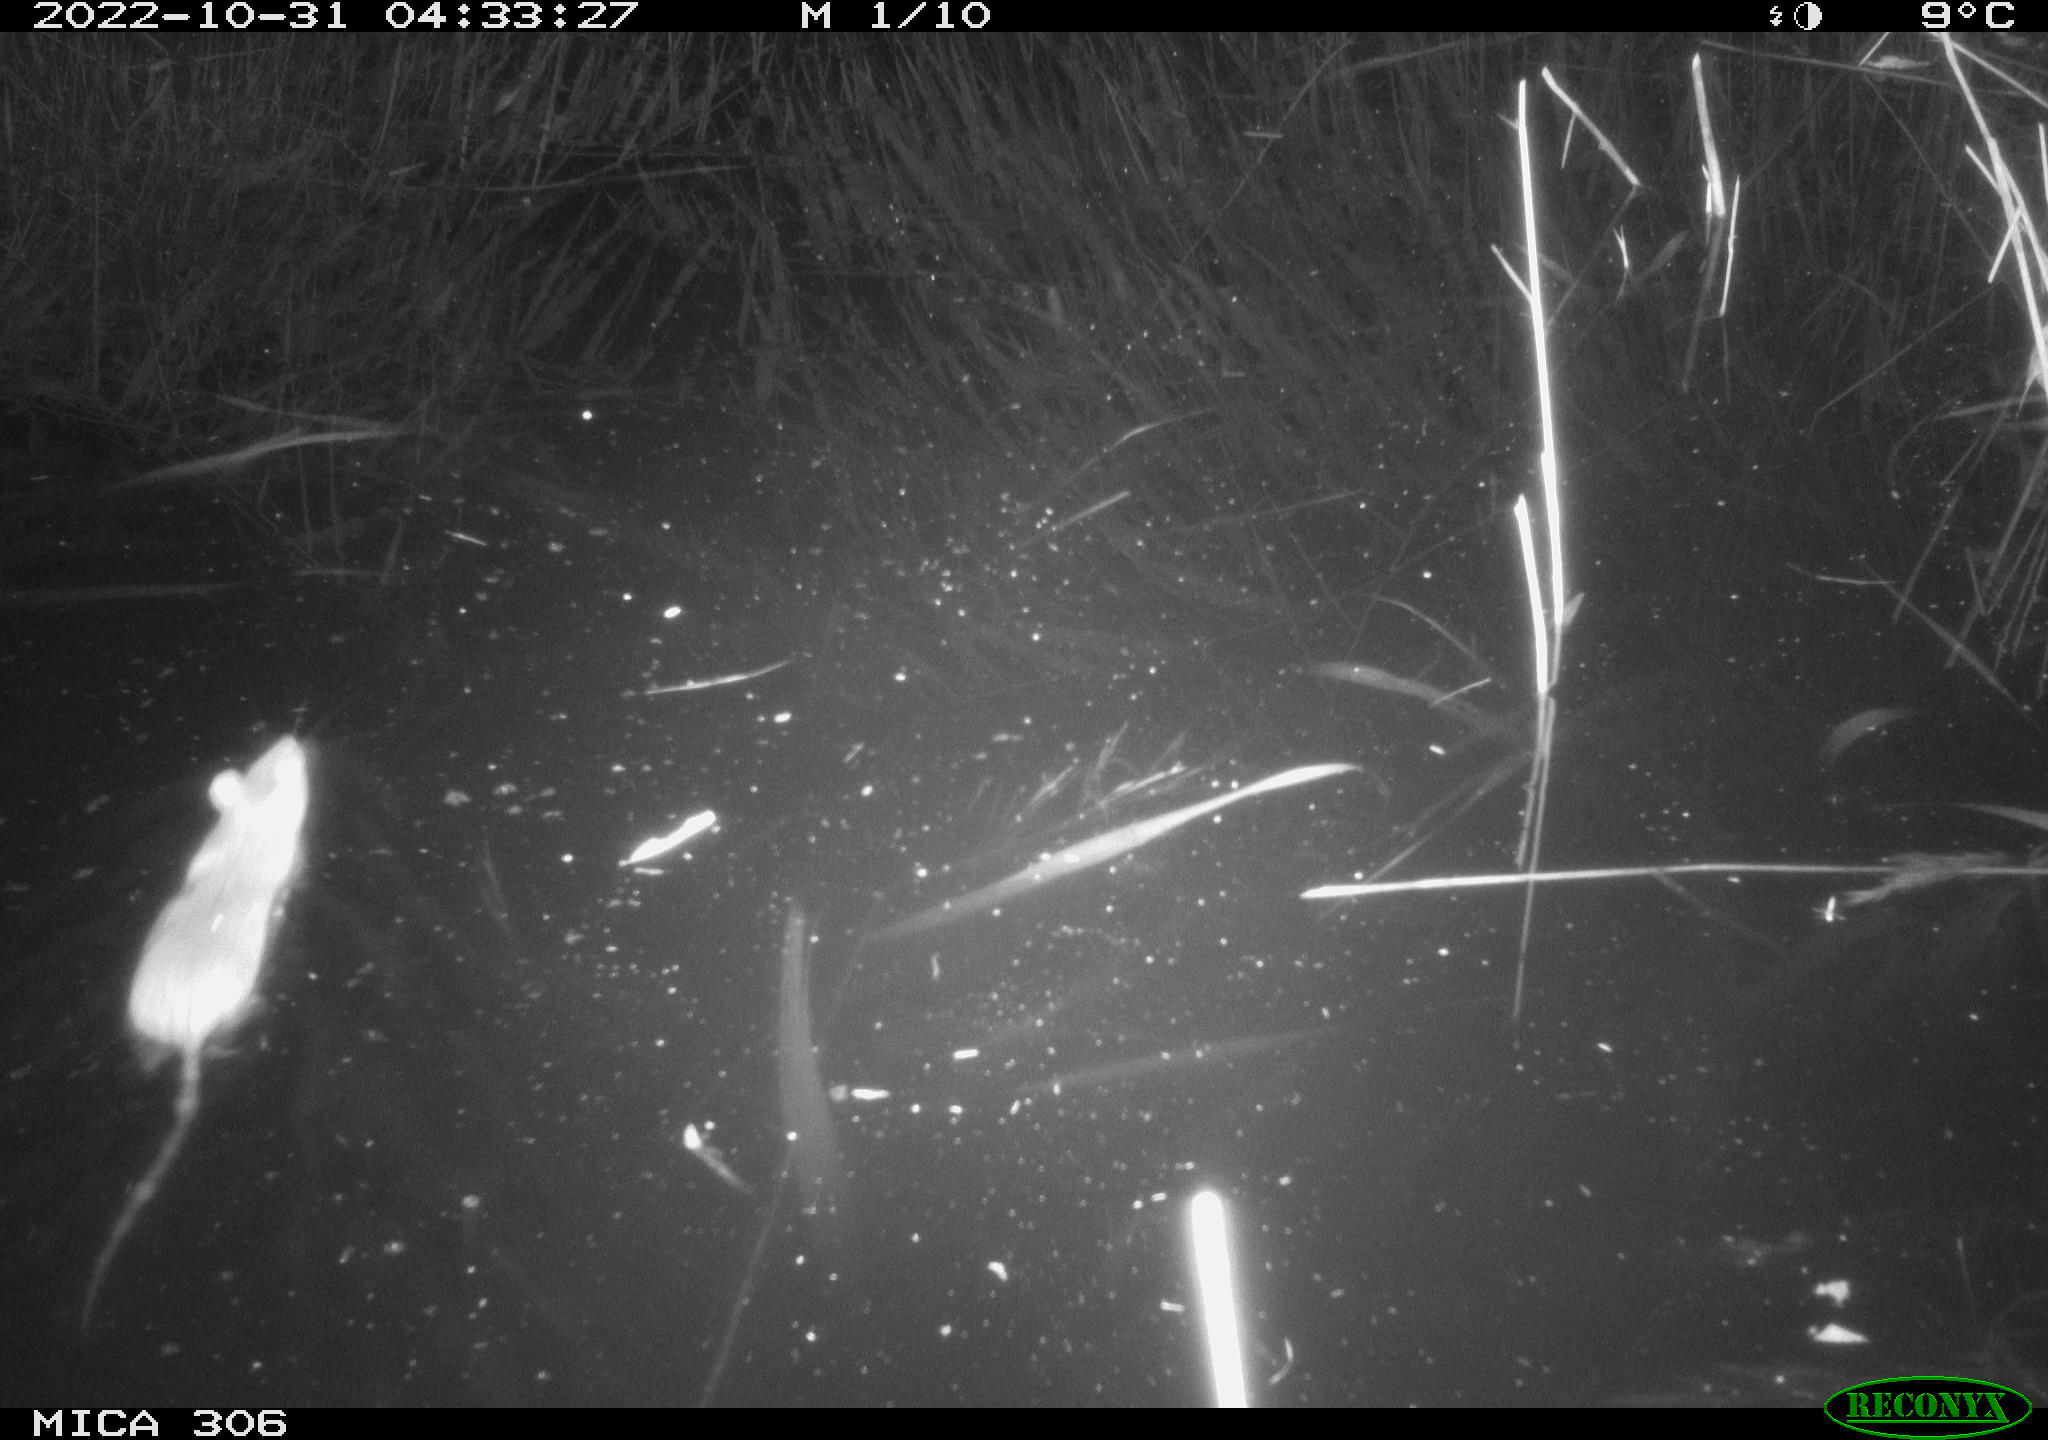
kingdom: Animalia
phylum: Chordata
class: Mammalia
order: Rodentia
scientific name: Rodentia
